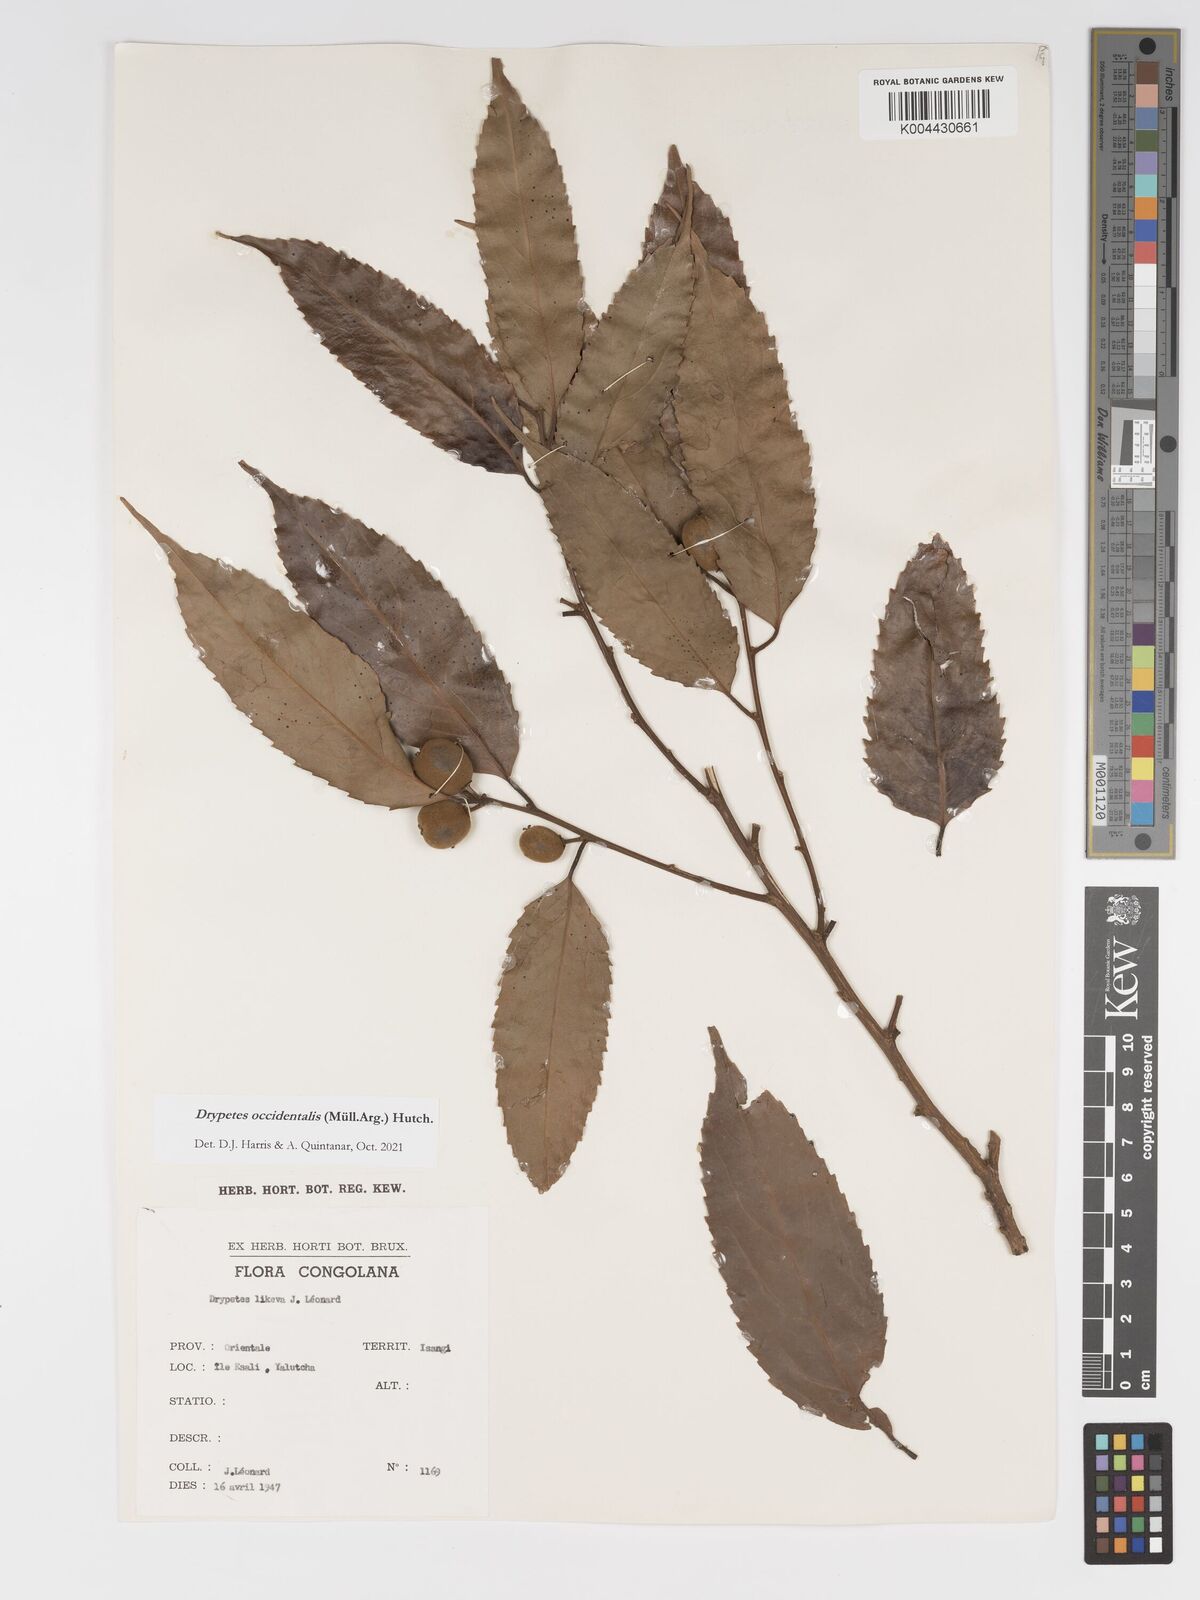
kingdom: Plantae
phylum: Tracheophyta
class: Magnoliopsida
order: Malpighiales
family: Putranjivaceae
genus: Drypetes
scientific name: Drypetes occidentalis
